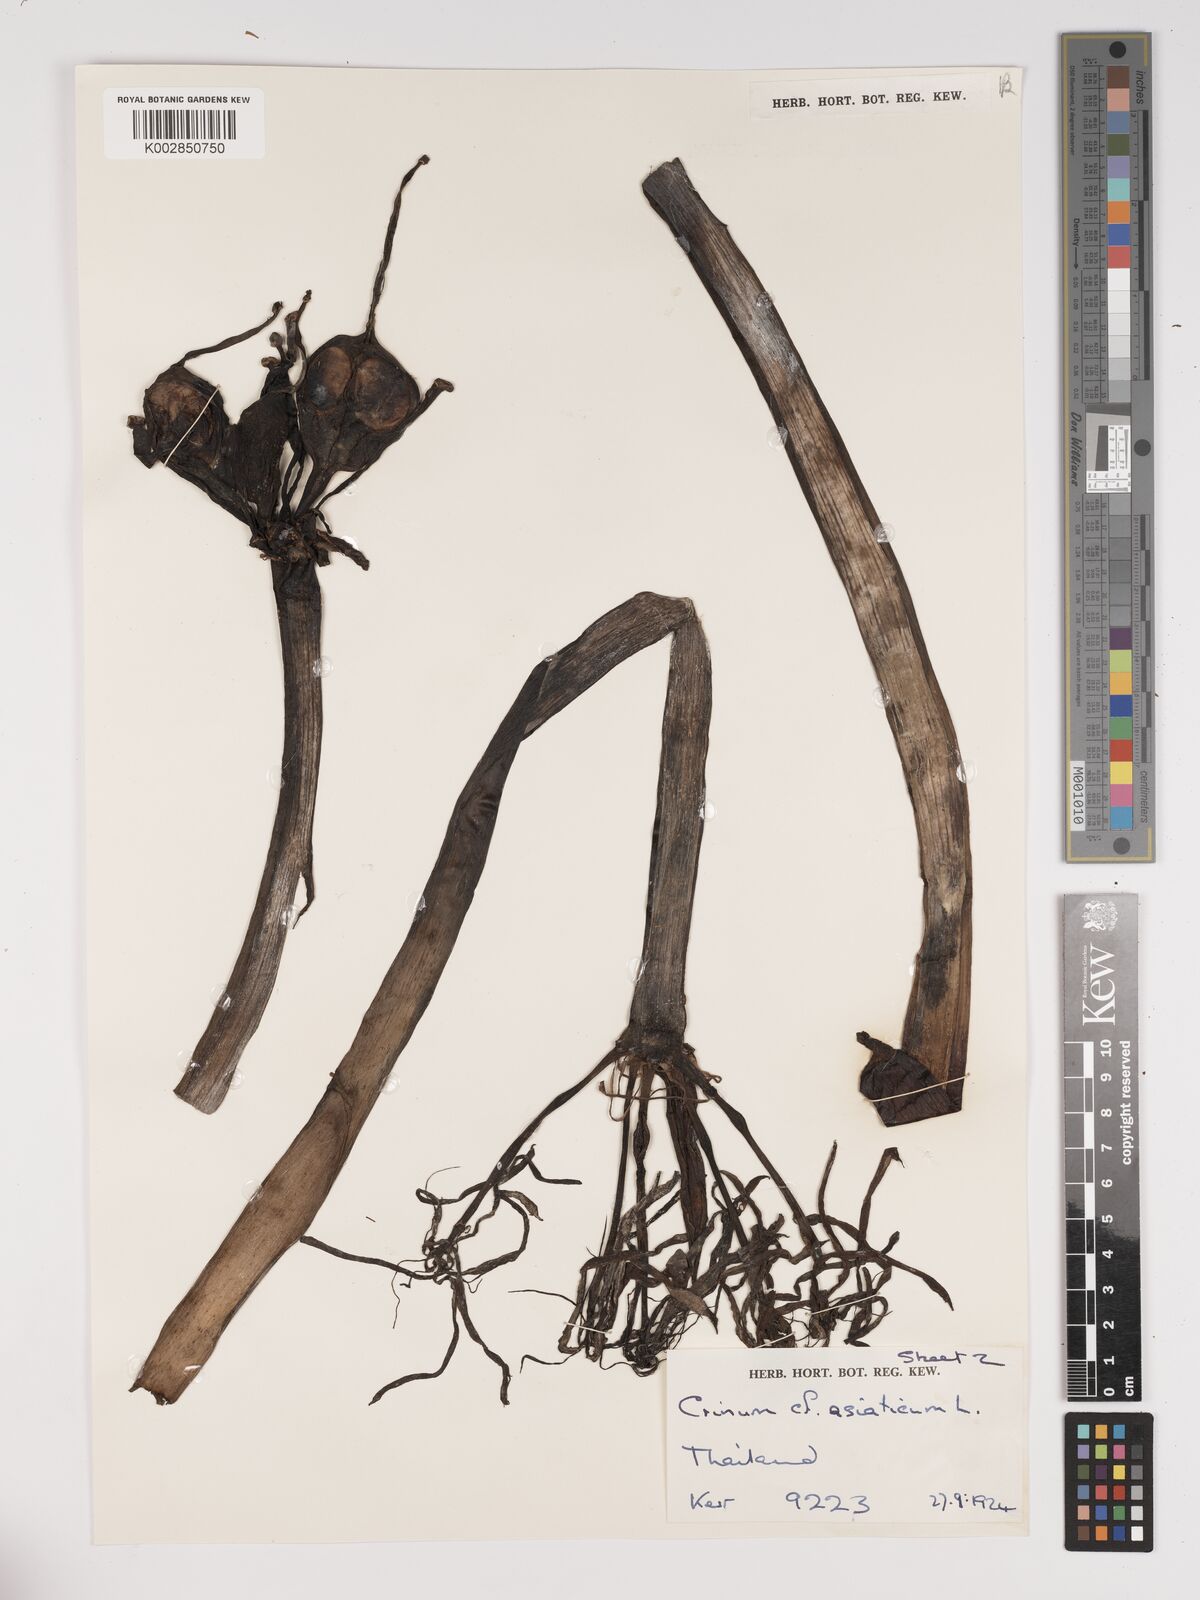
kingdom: Plantae
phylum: Tracheophyta
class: Liliopsida
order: Asparagales
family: Amaryllidaceae
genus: Crinum
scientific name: Crinum asiaticum
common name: Poisonbulb
